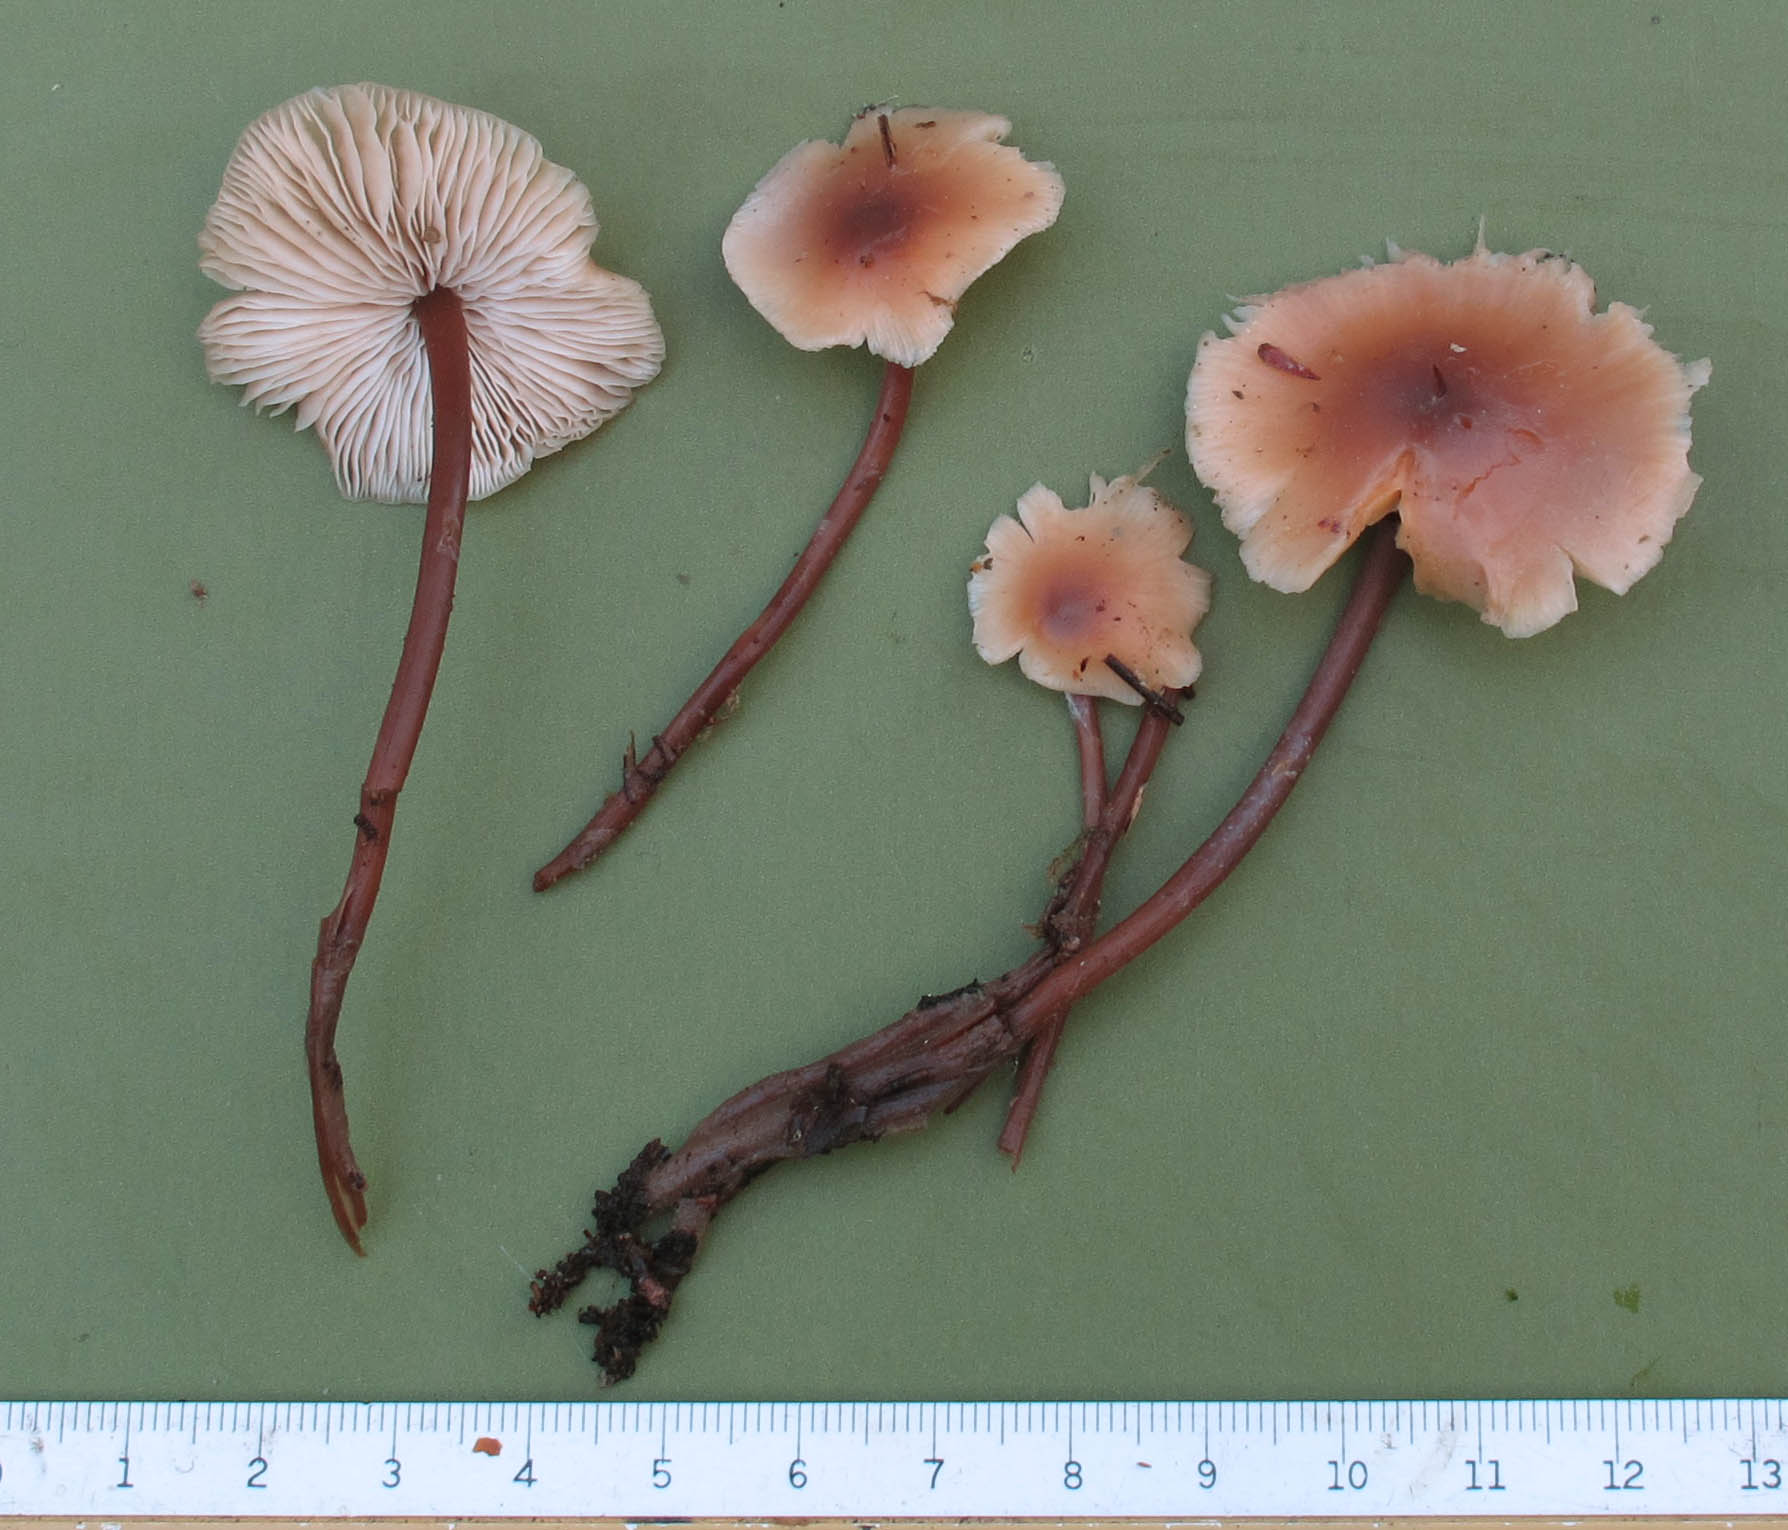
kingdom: Fungi
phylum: Basidiomycota
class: Agaricomycetes
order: Agaricales
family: Omphalotaceae
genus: Connopus
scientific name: Connopus acervatus
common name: tue-fladhat
